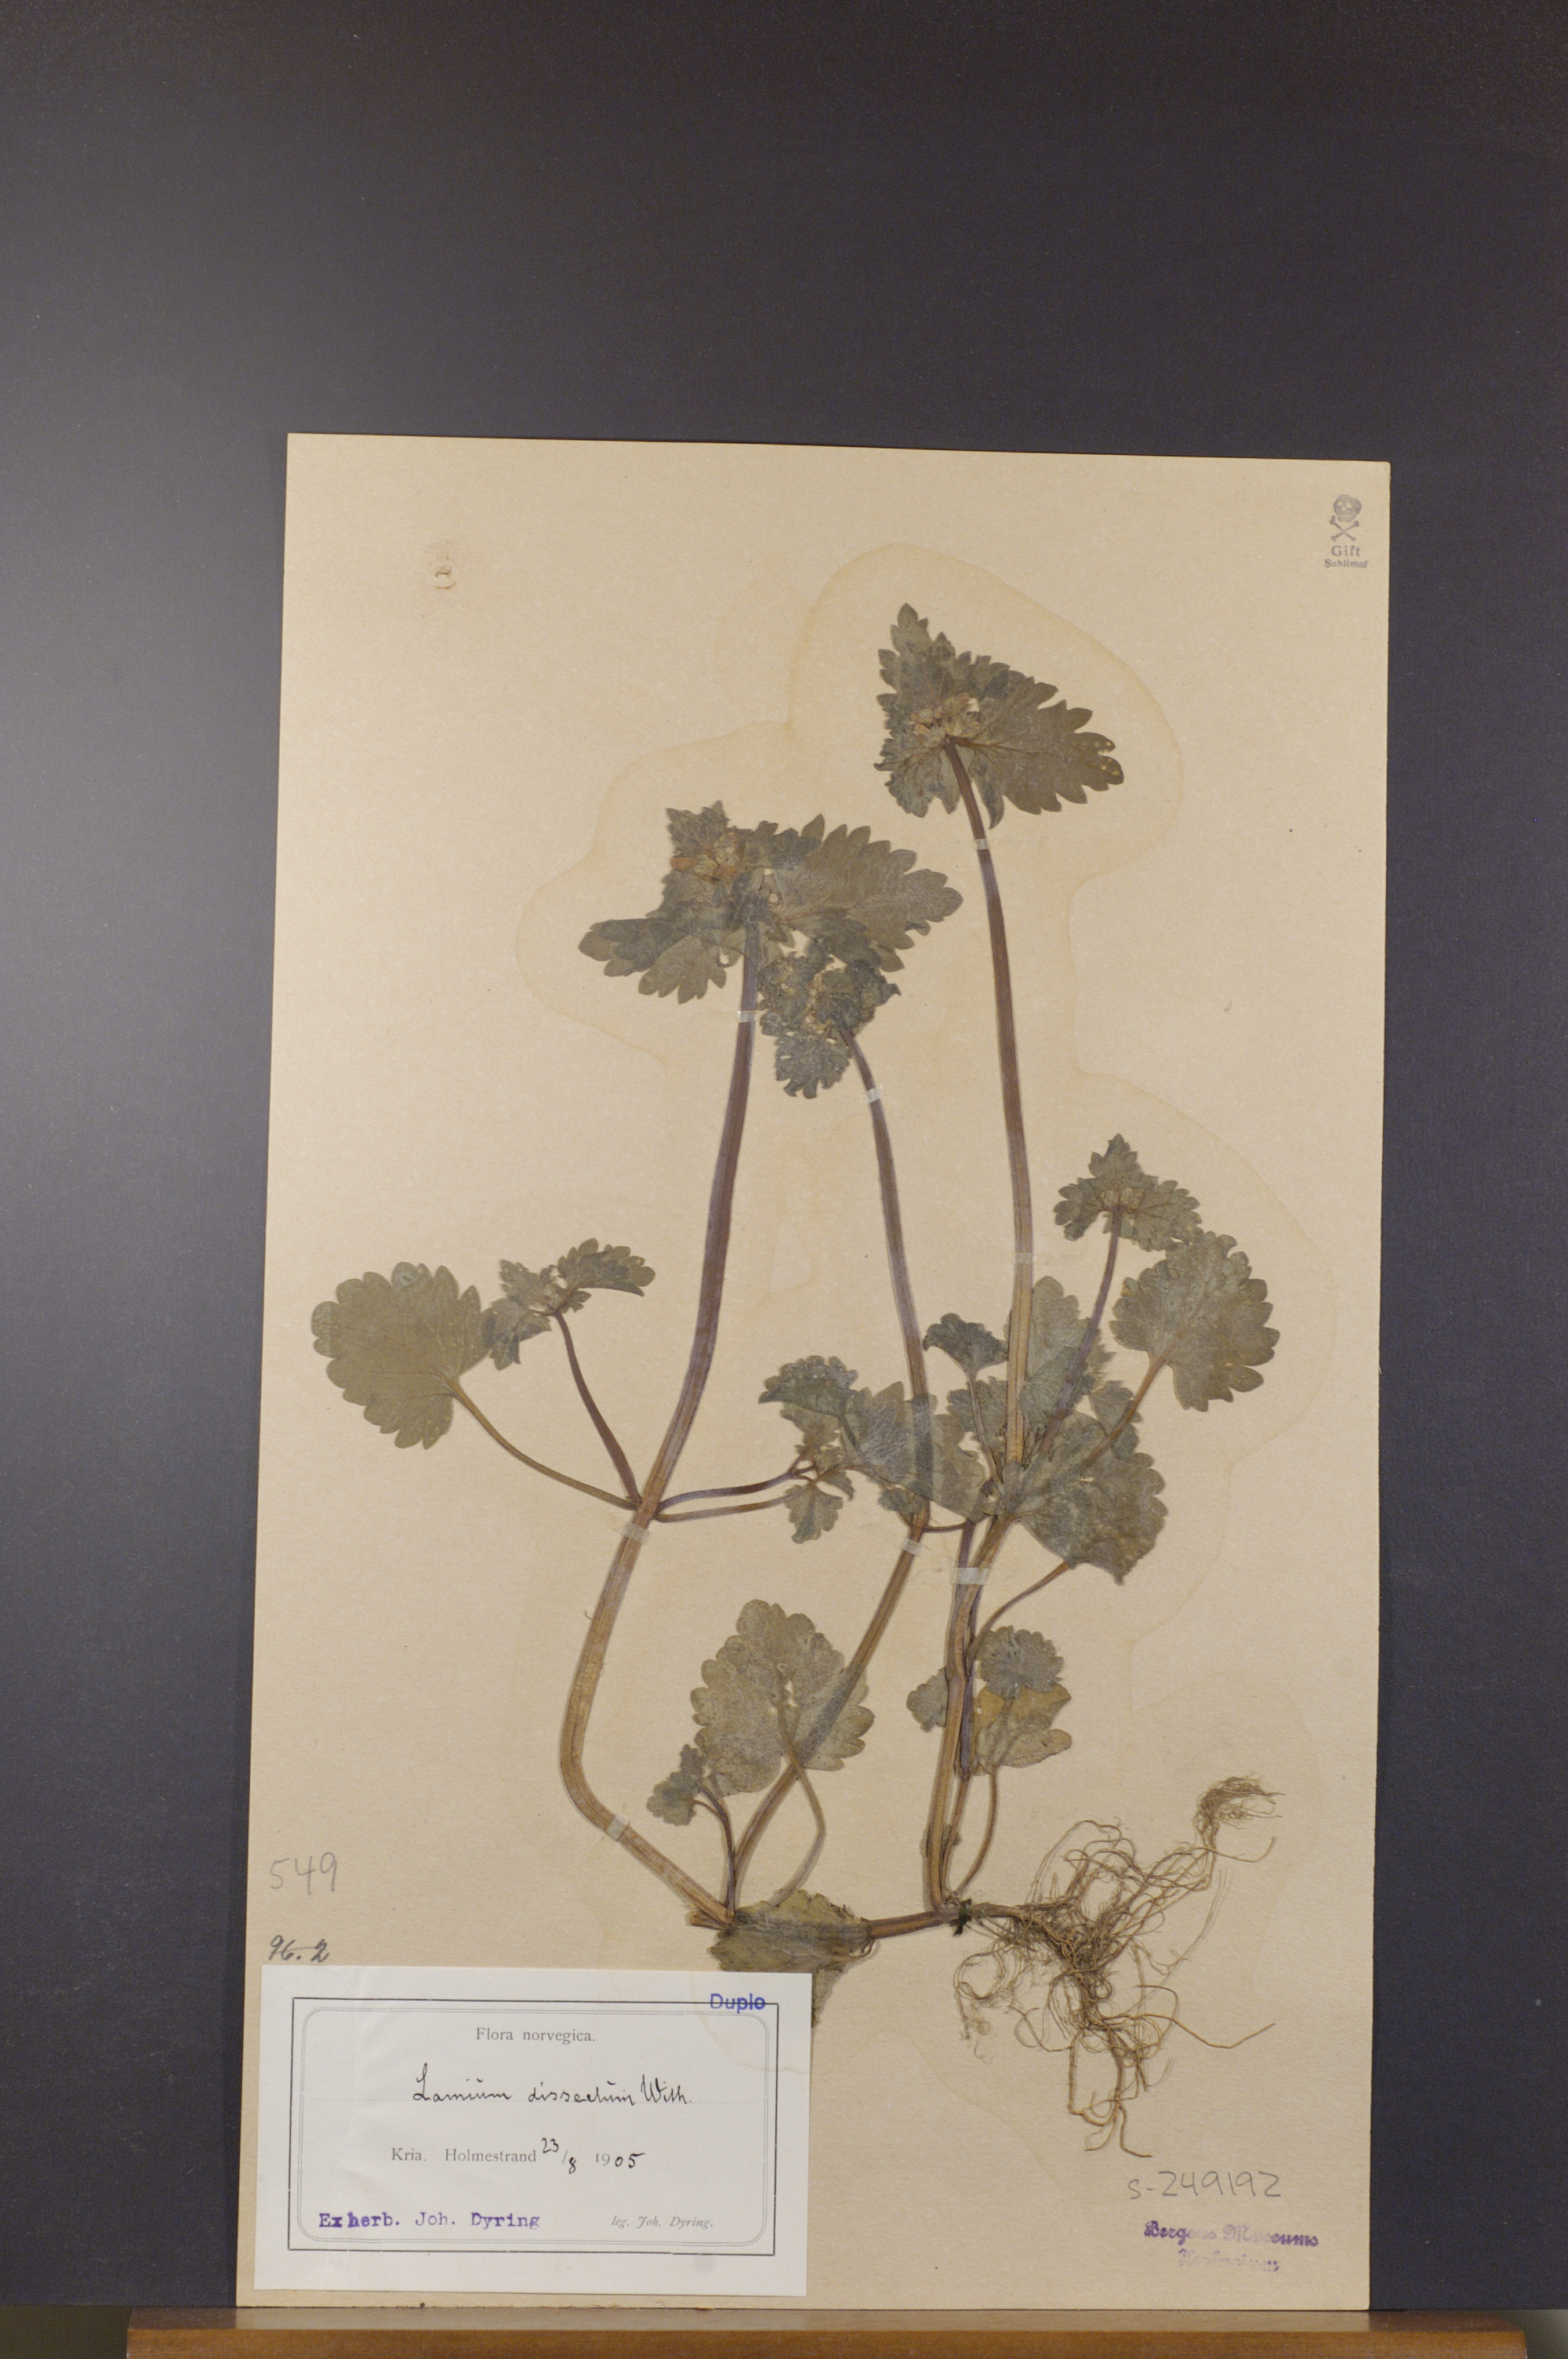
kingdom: Plantae
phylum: Tracheophyta
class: Magnoliopsida
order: Lamiales
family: Lamiaceae
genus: Lamium
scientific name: Lamium hybridum
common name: Cut-leaved dead-nettle
